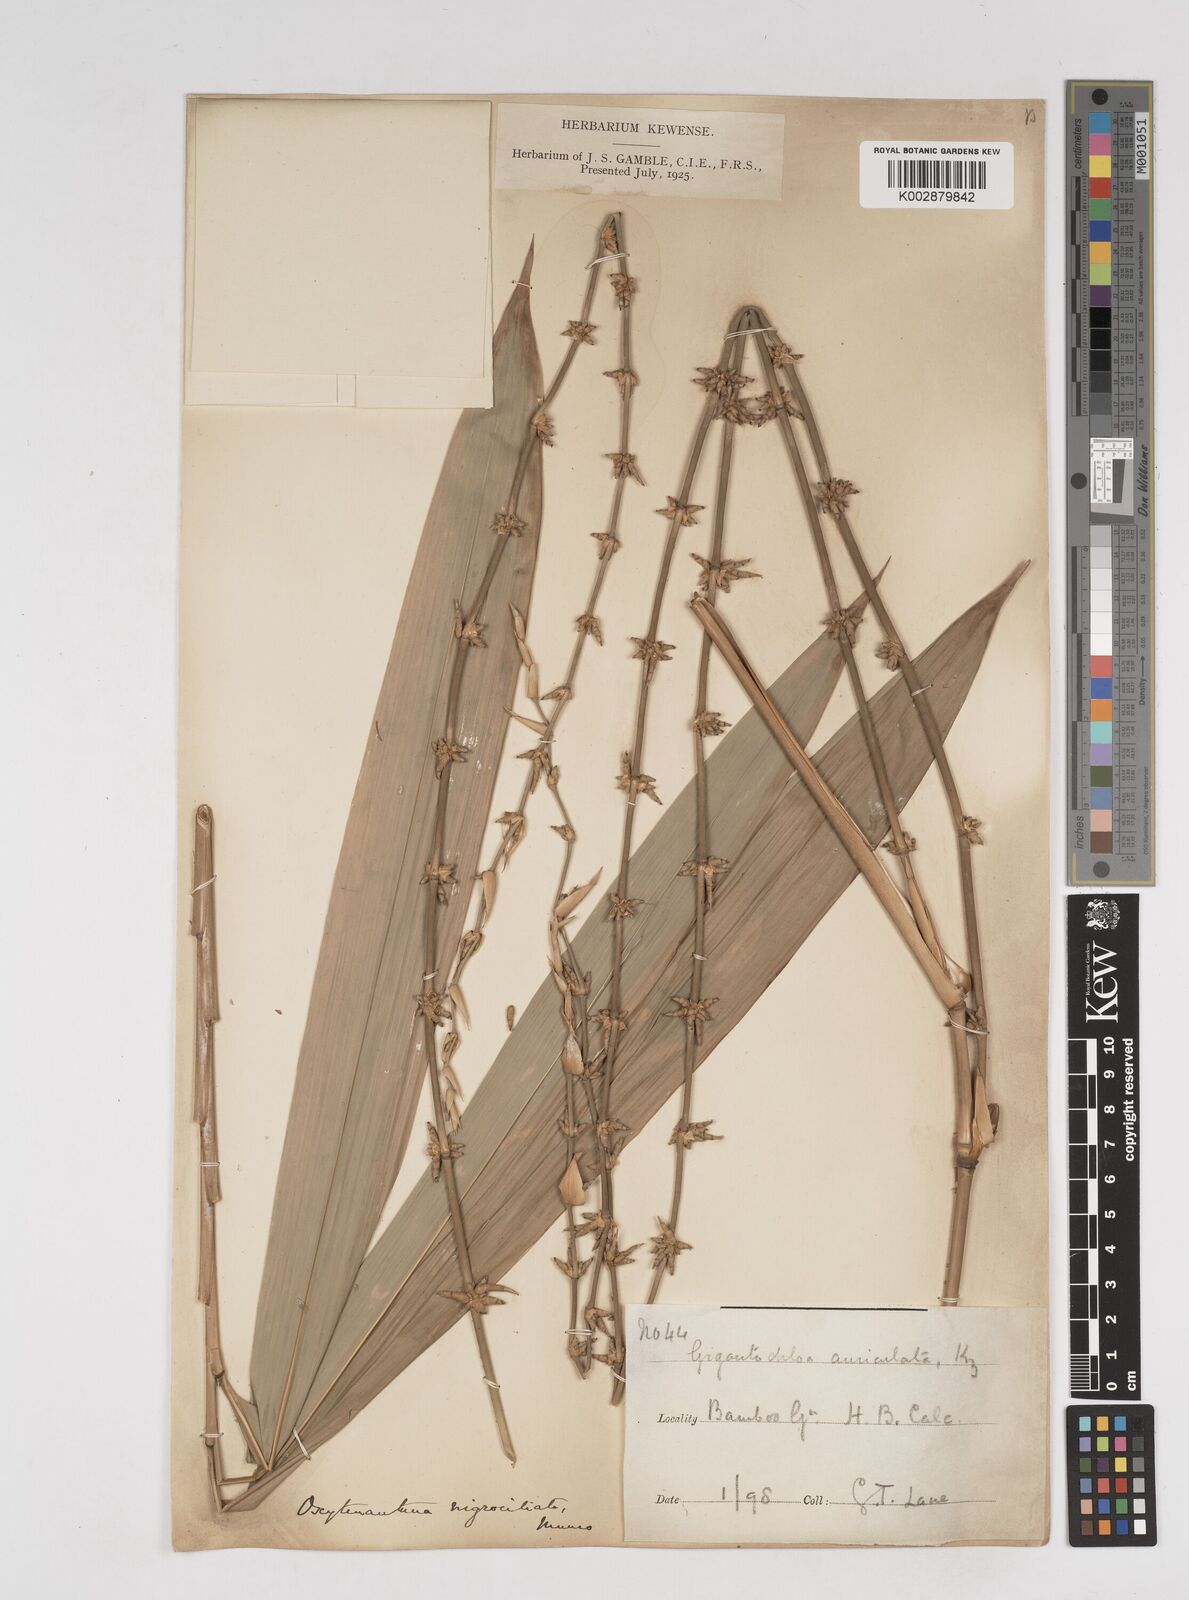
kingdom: Plantae
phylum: Tracheophyta
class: Liliopsida
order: Poales
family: Poaceae
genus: Gigantochloa
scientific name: Gigantochloa nigrociliata
